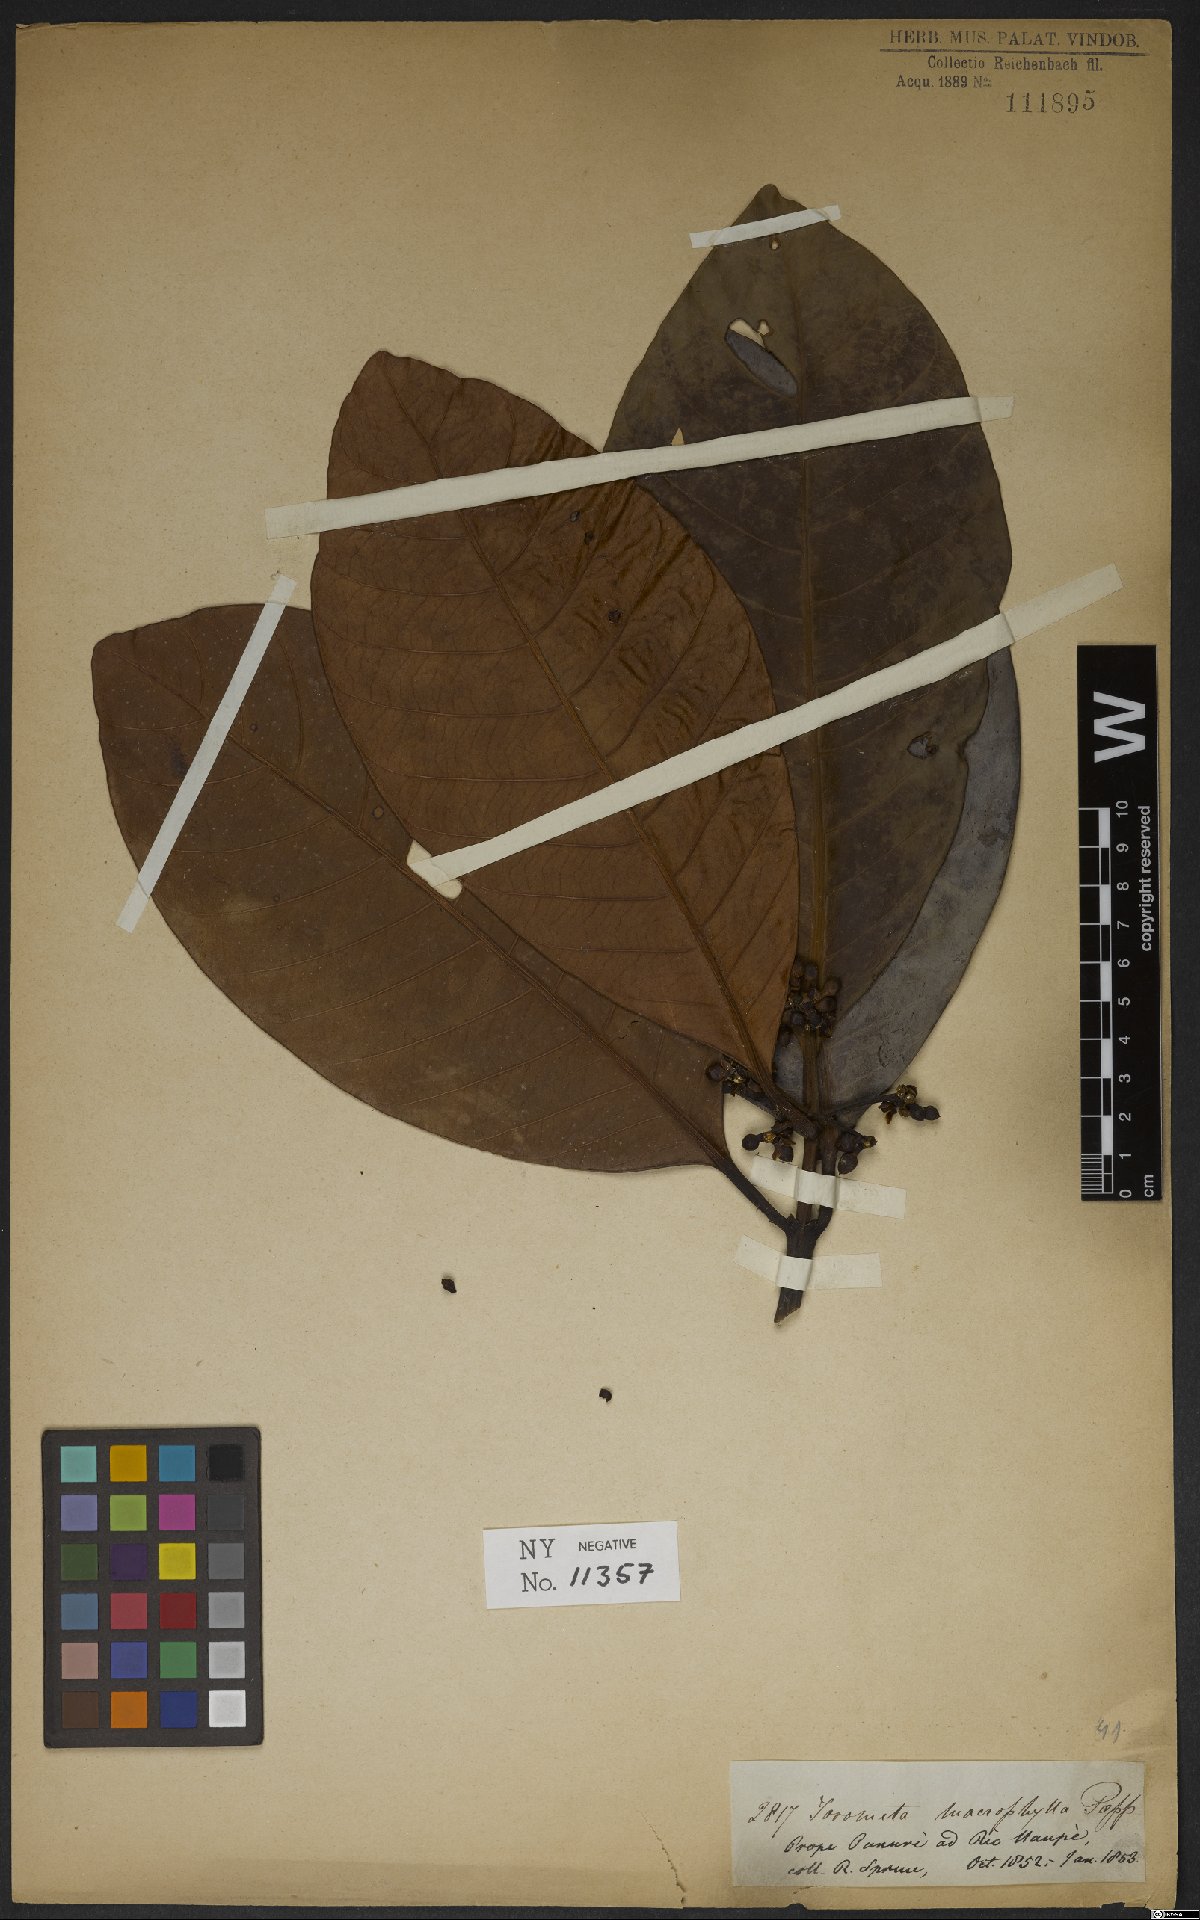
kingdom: Plantae
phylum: Tracheophyta
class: Magnoliopsida
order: Malpighiales
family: Clusiaceae
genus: Tovomita
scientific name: Tovomita macrophylla
